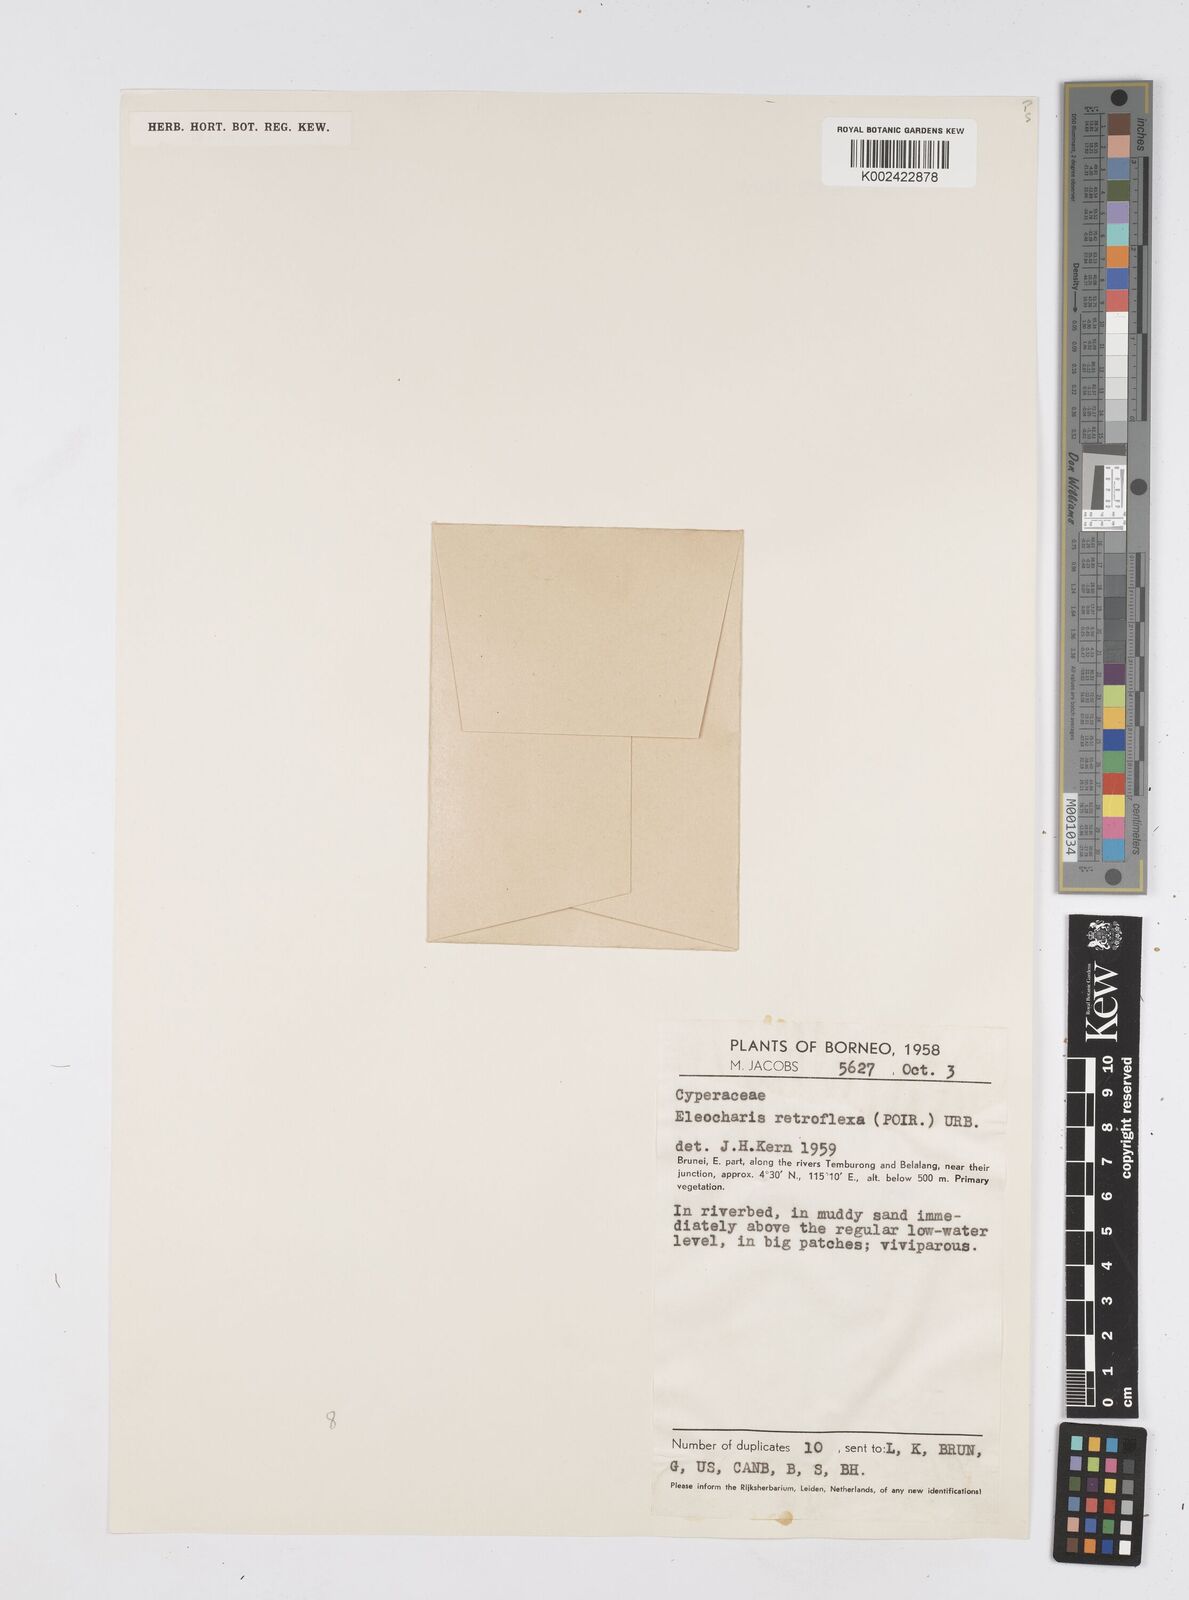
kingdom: Plantae
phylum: Tracheophyta
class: Liliopsida
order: Poales
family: Cyperaceae
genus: Eleocharis
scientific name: Eleocharis retroflexa
